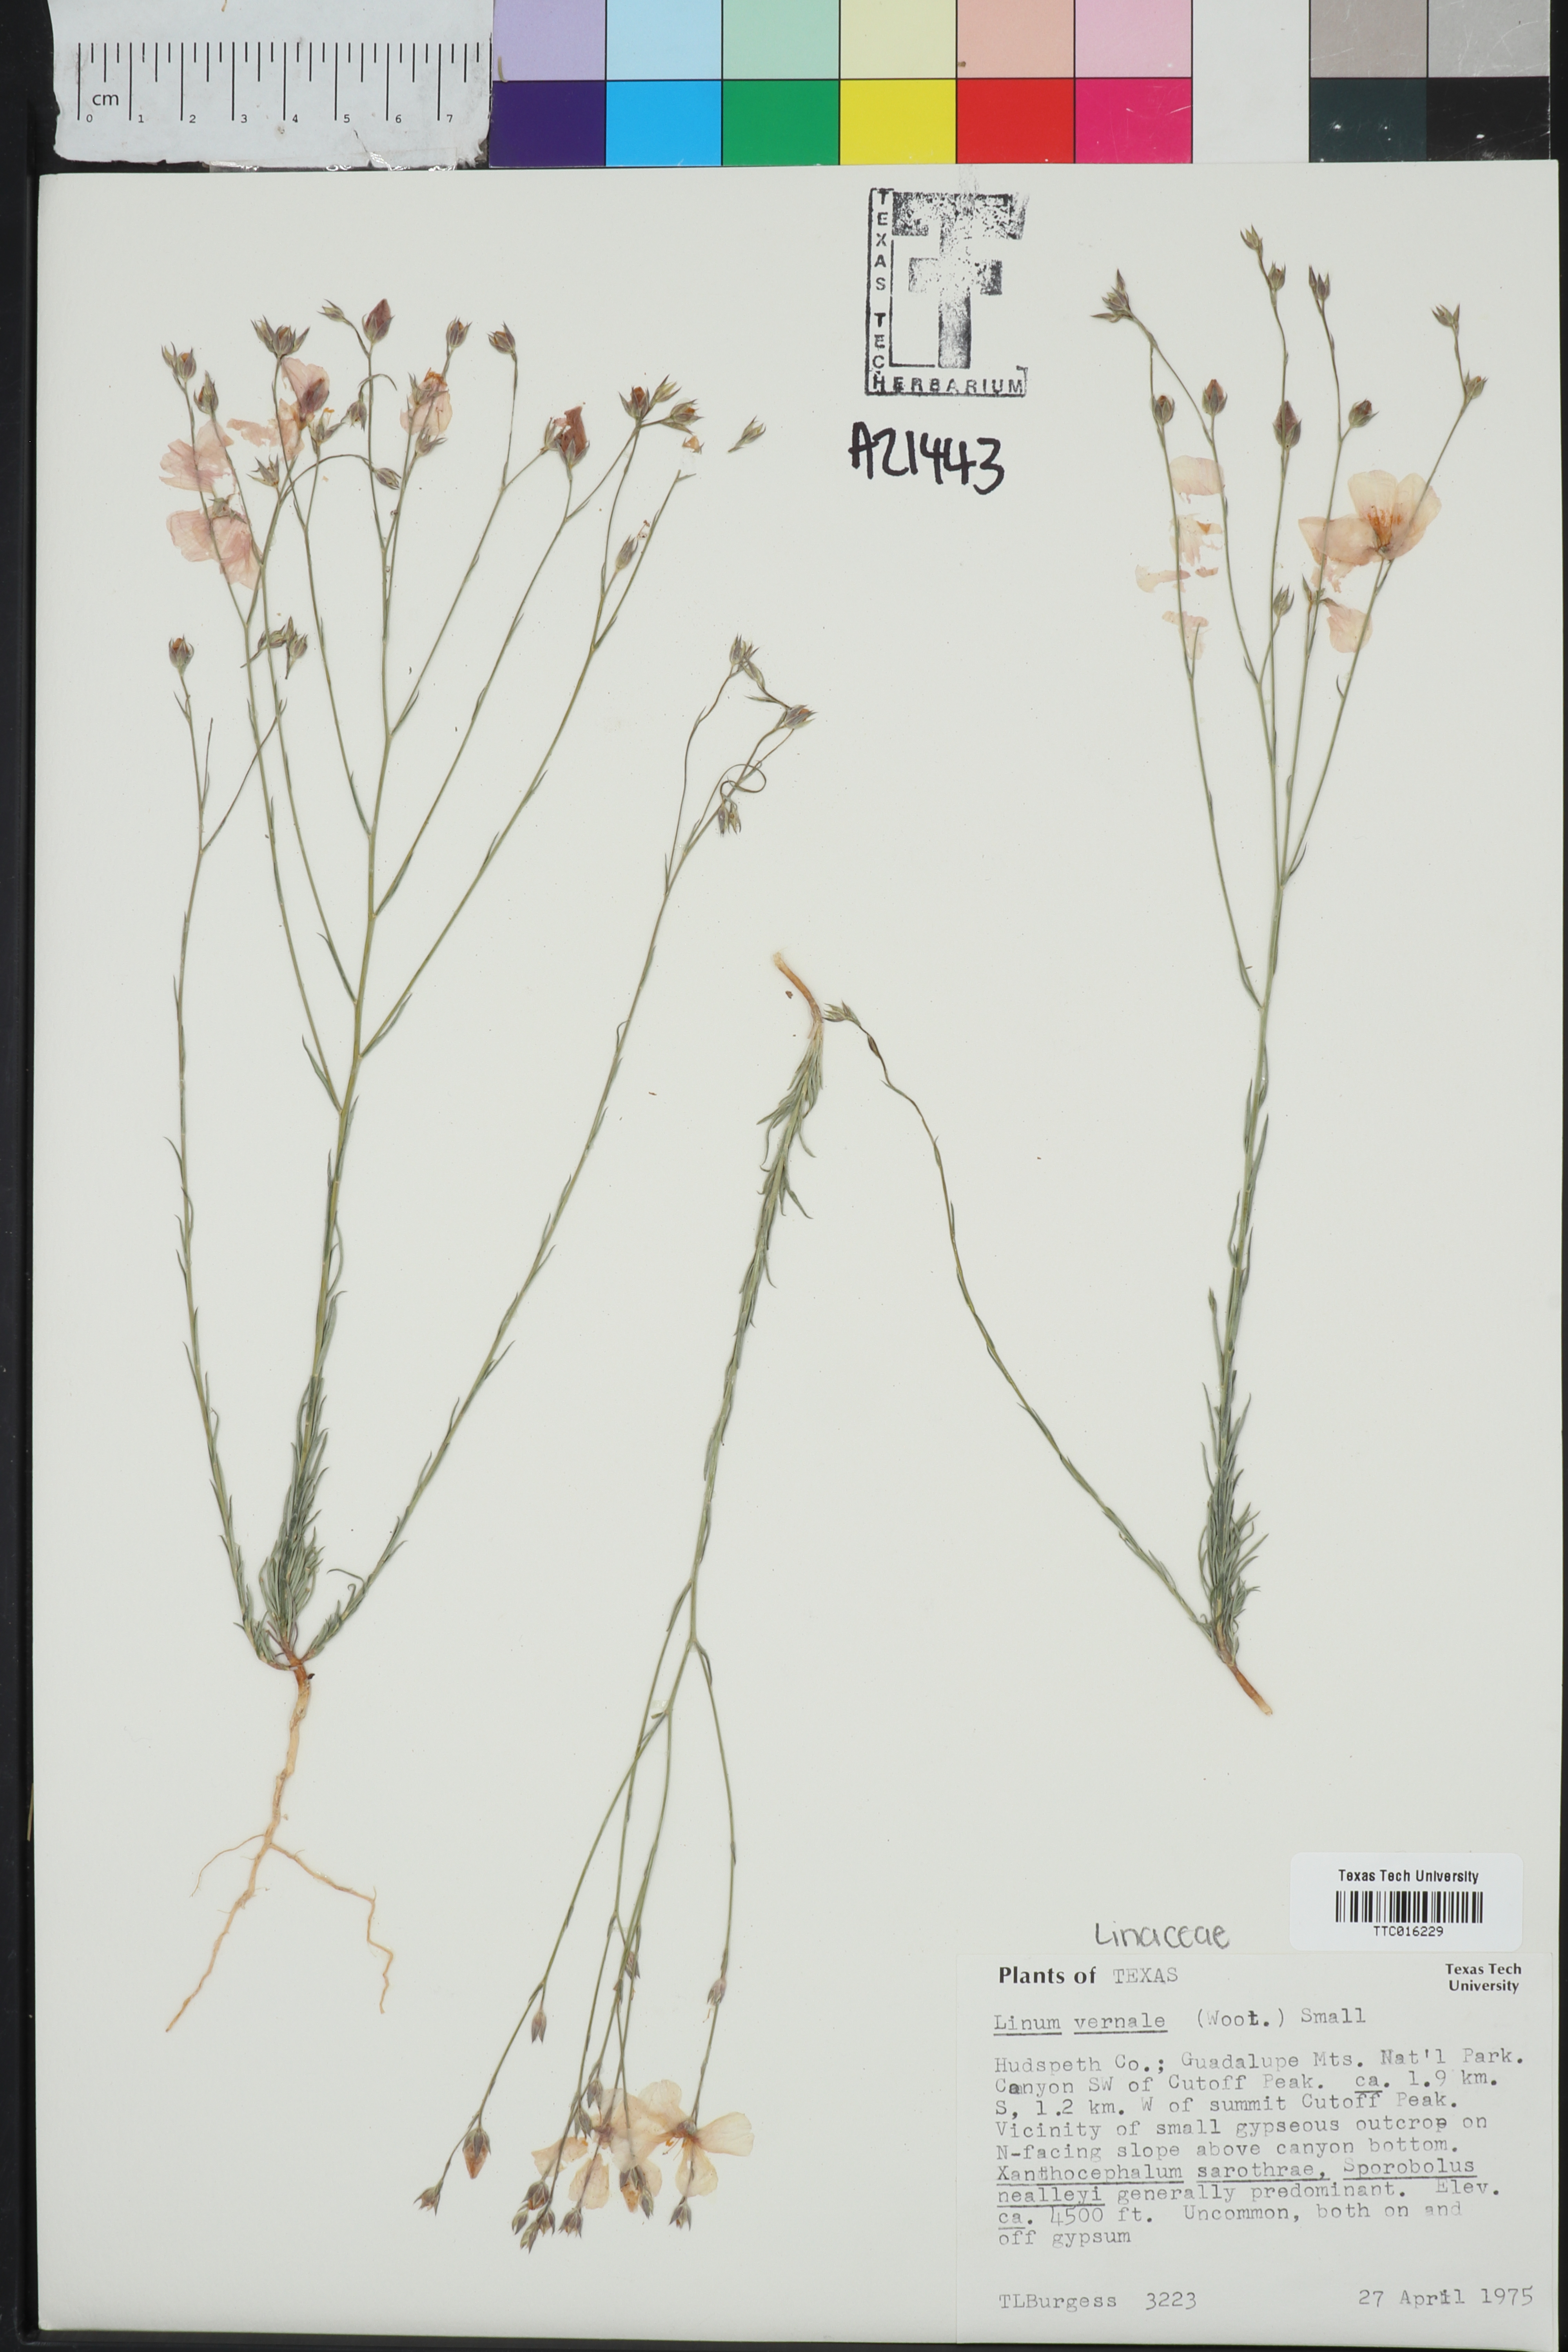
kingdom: Plantae
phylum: Tracheophyta
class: Magnoliopsida
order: Malpighiales
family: Linaceae
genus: Linum
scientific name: Linum vernale
